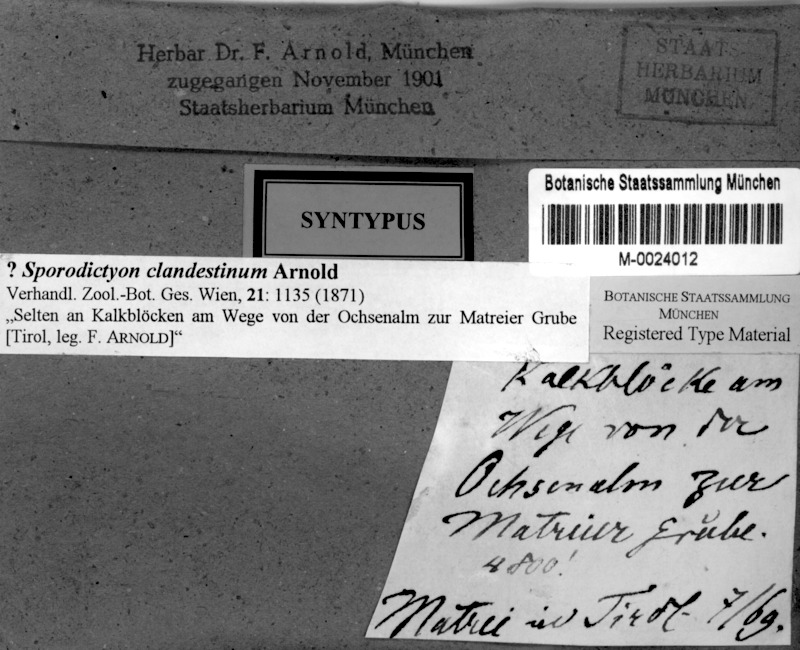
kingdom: Fungi
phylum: Ascomycota
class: Eurotiomycetes
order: Verrucariales
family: Verrucariaceae
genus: Sporodictyon
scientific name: Sporodictyon clandestinum
